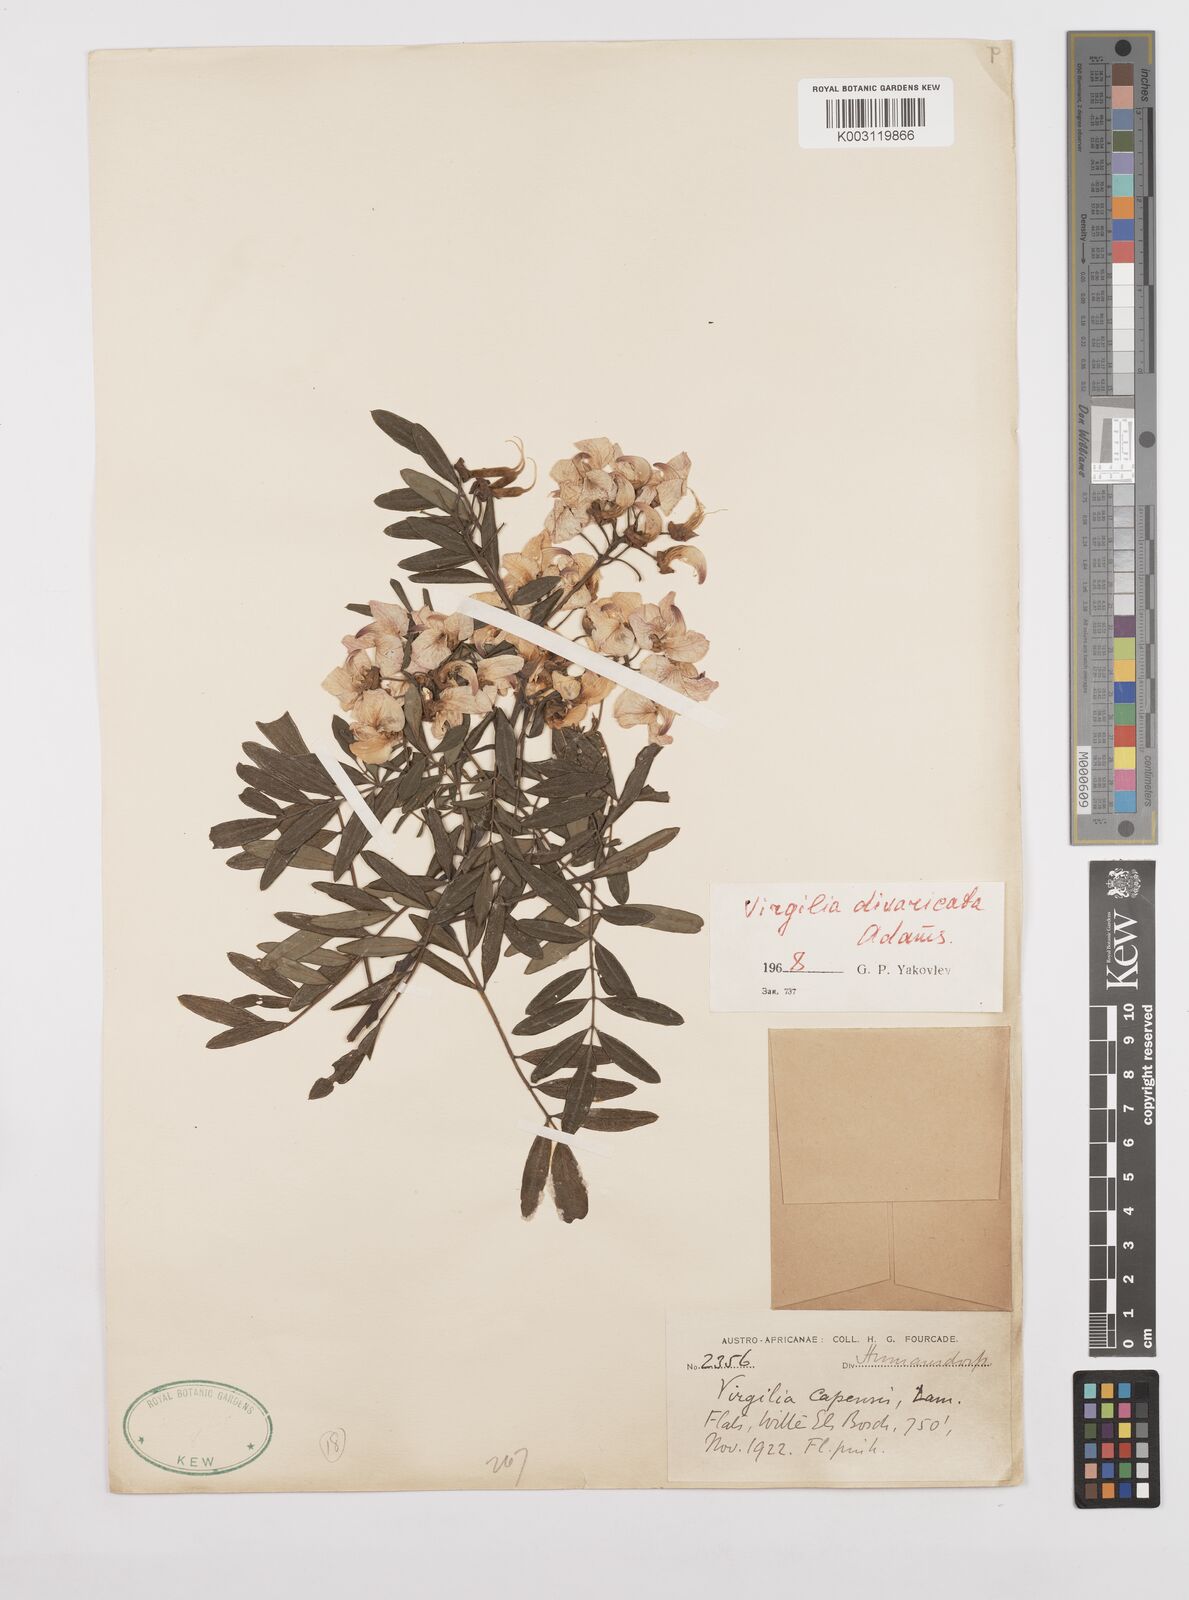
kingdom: Plantae
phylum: Tracheophyta
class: Magnoliopsida
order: Fabales
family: Fabaceae
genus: Virgilia
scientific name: Virgilia divaricata
